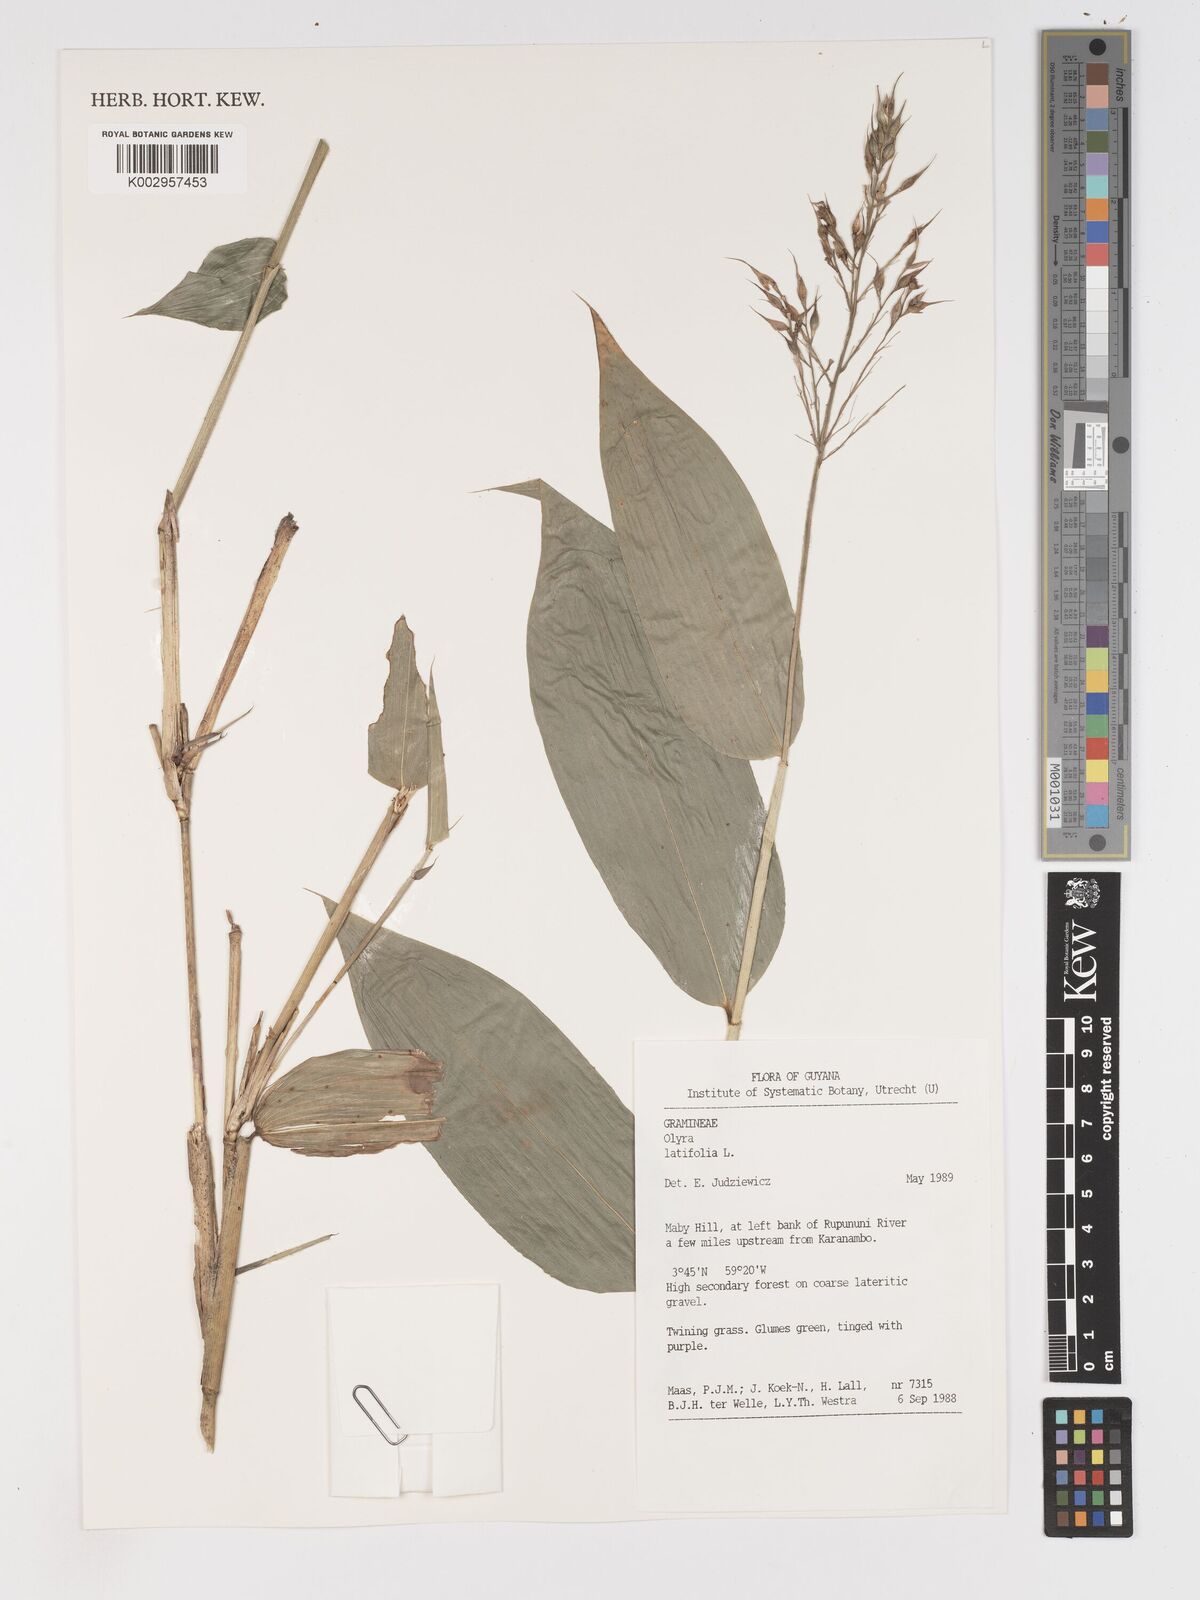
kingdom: Plantae
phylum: Tracheophyta
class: Liliopsida
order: Poales
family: Poaceae
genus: Olyra
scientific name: Olyra latifolia
